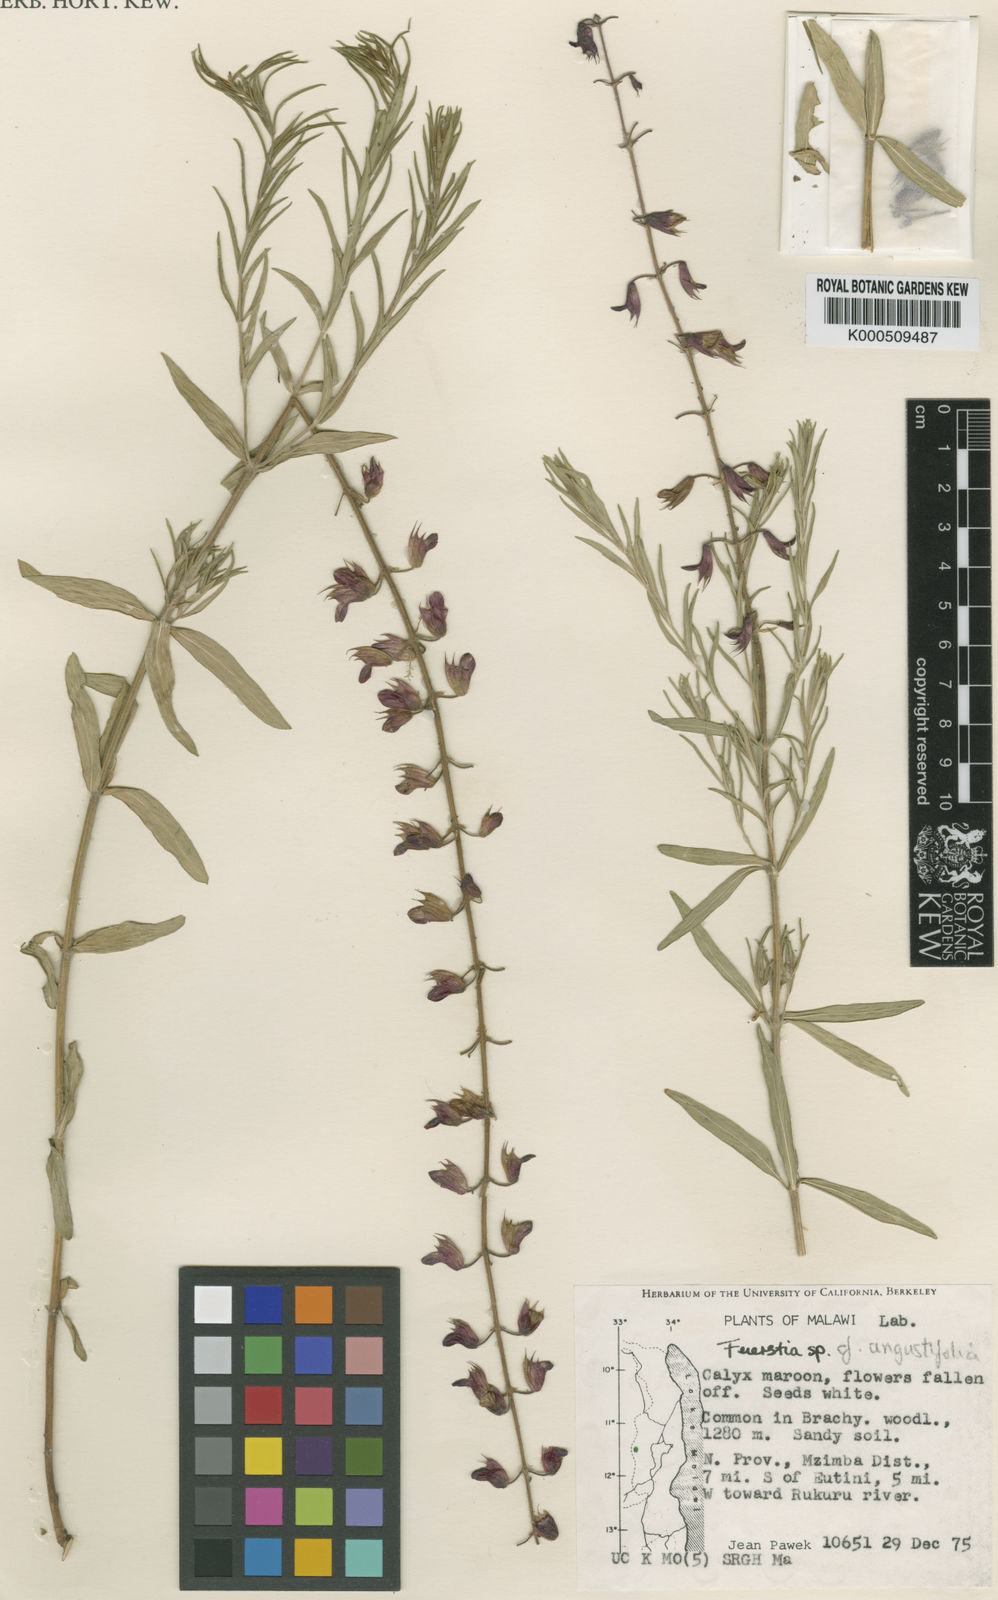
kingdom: Plantae
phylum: Tracheophyta
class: Magnoliopsida
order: Lamiales
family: Lamiaceae
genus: Fuerstia
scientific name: Fuerstia angustifolia
